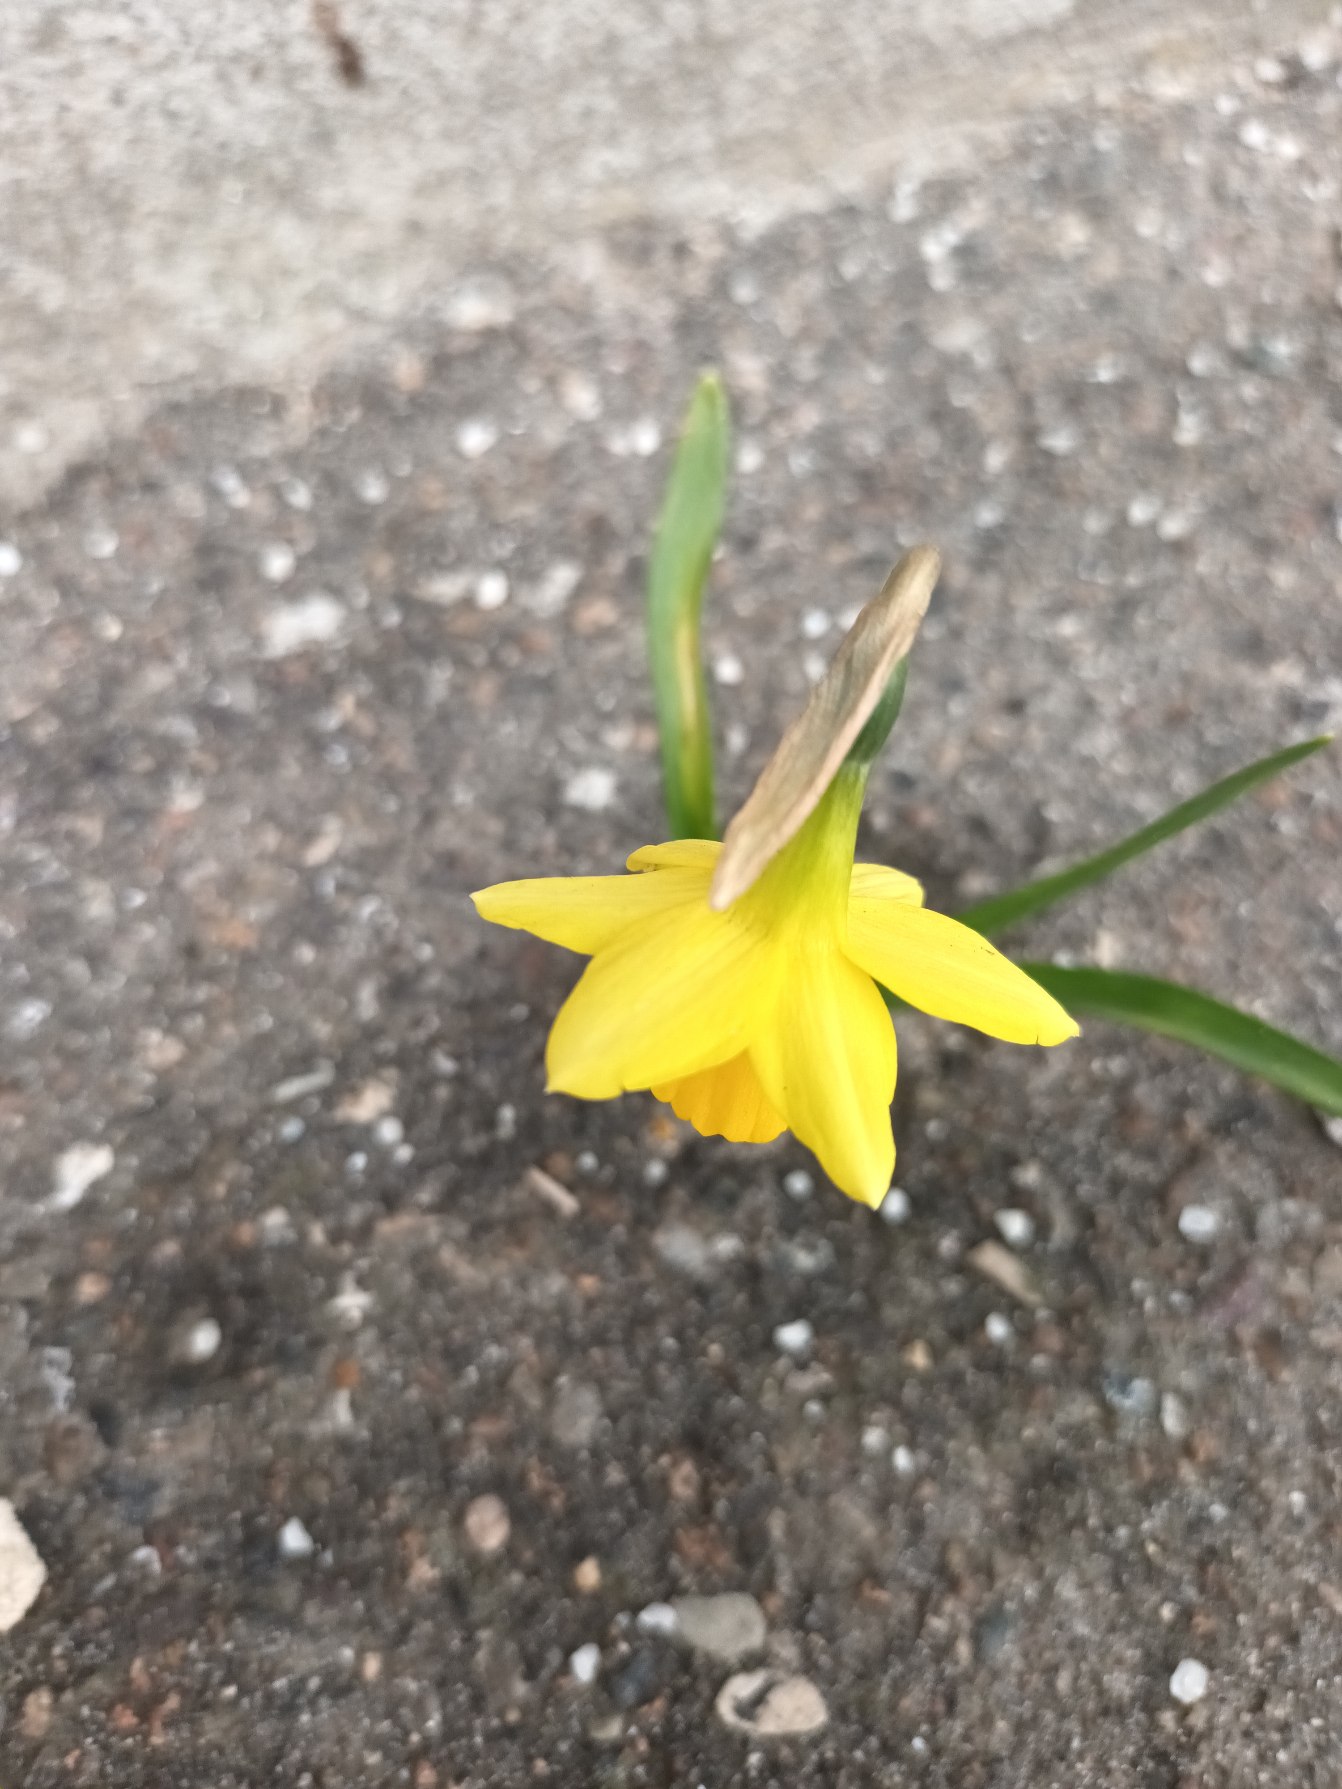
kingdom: Plantae
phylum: Tracheophyta
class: Liliopsida
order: Asparagales
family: Amaryllidaceae
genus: Narcissus
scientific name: Narcissus cyclazetta
